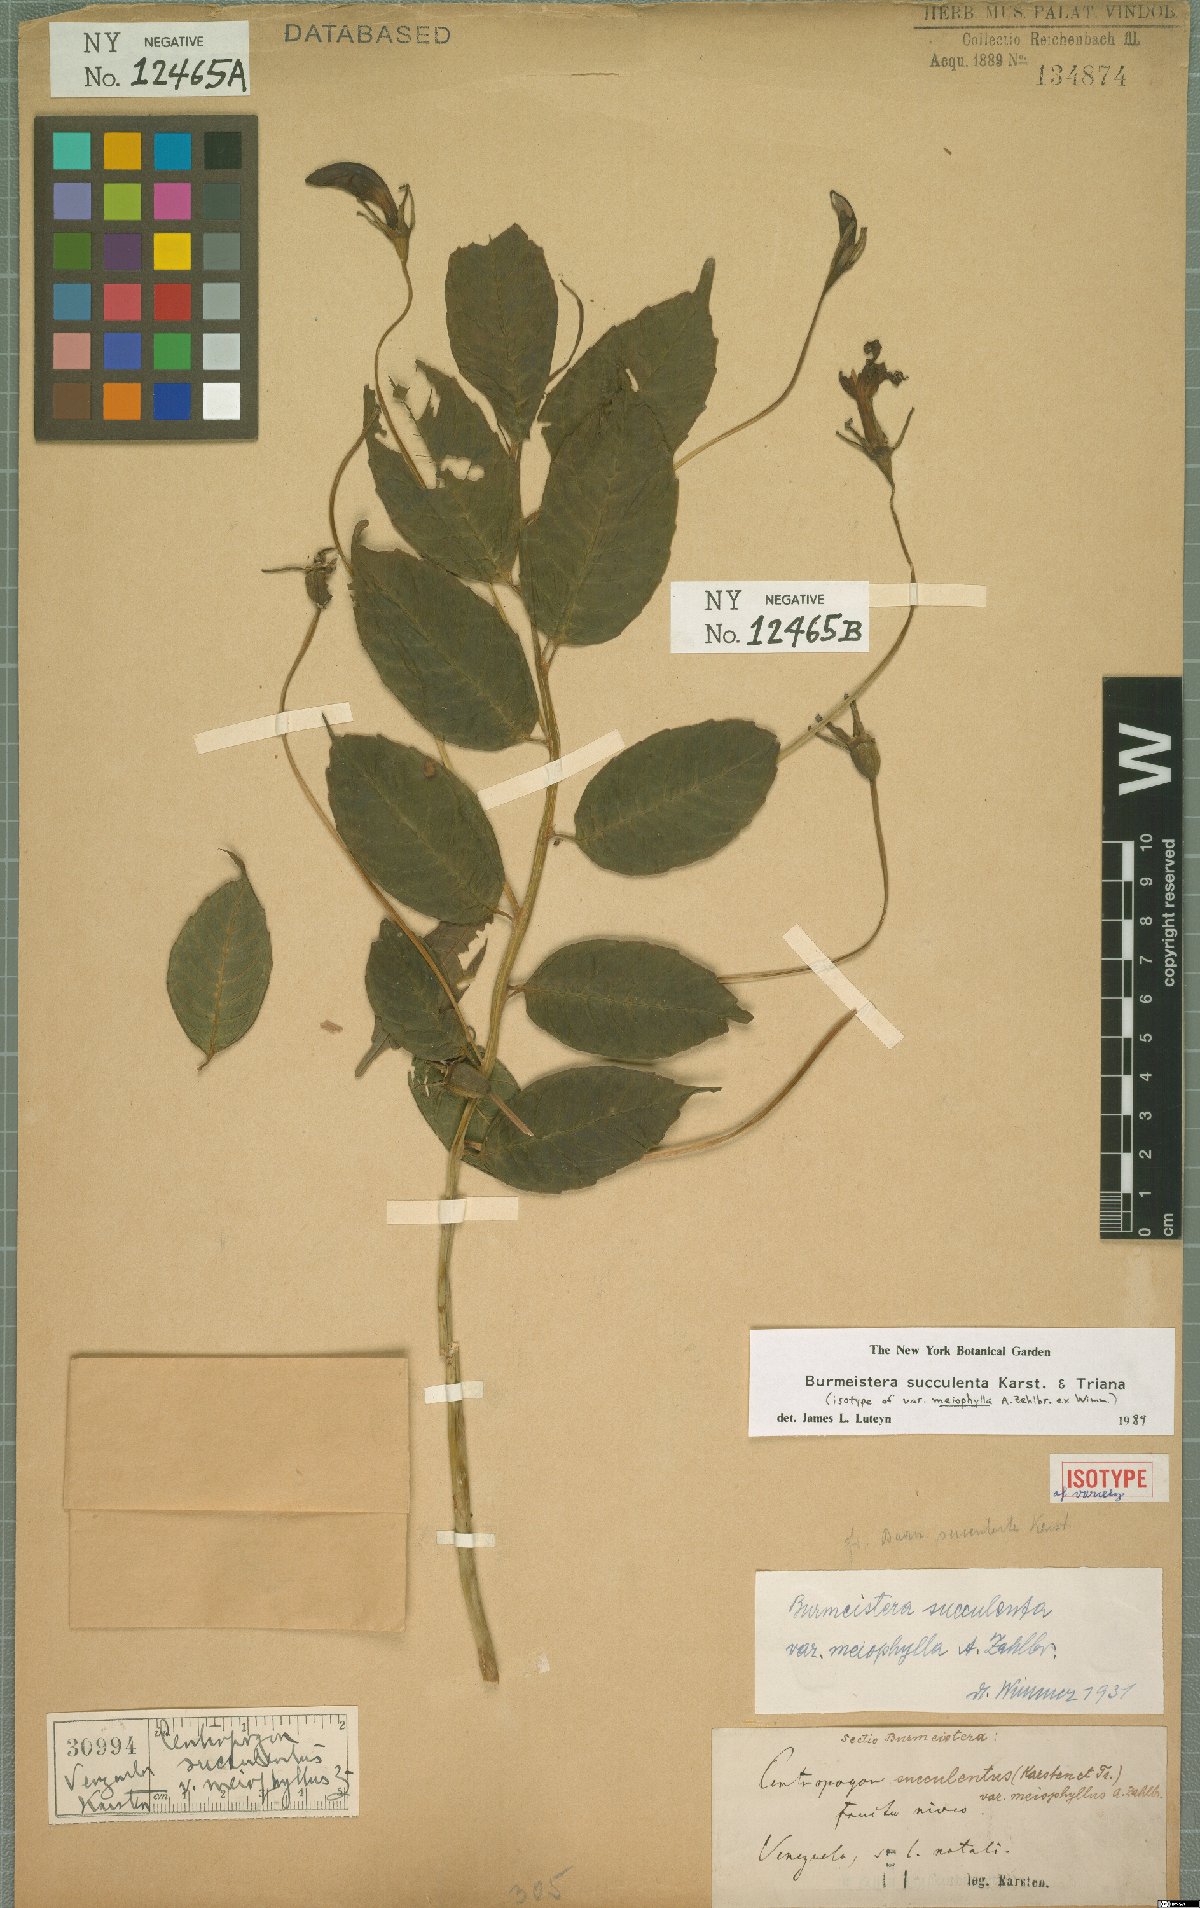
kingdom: Plantae
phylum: Tracheophyta
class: Magnoliopsida
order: Asterales
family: Campanulaceae
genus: Burmeistera
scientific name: Burmeistera succulenta
